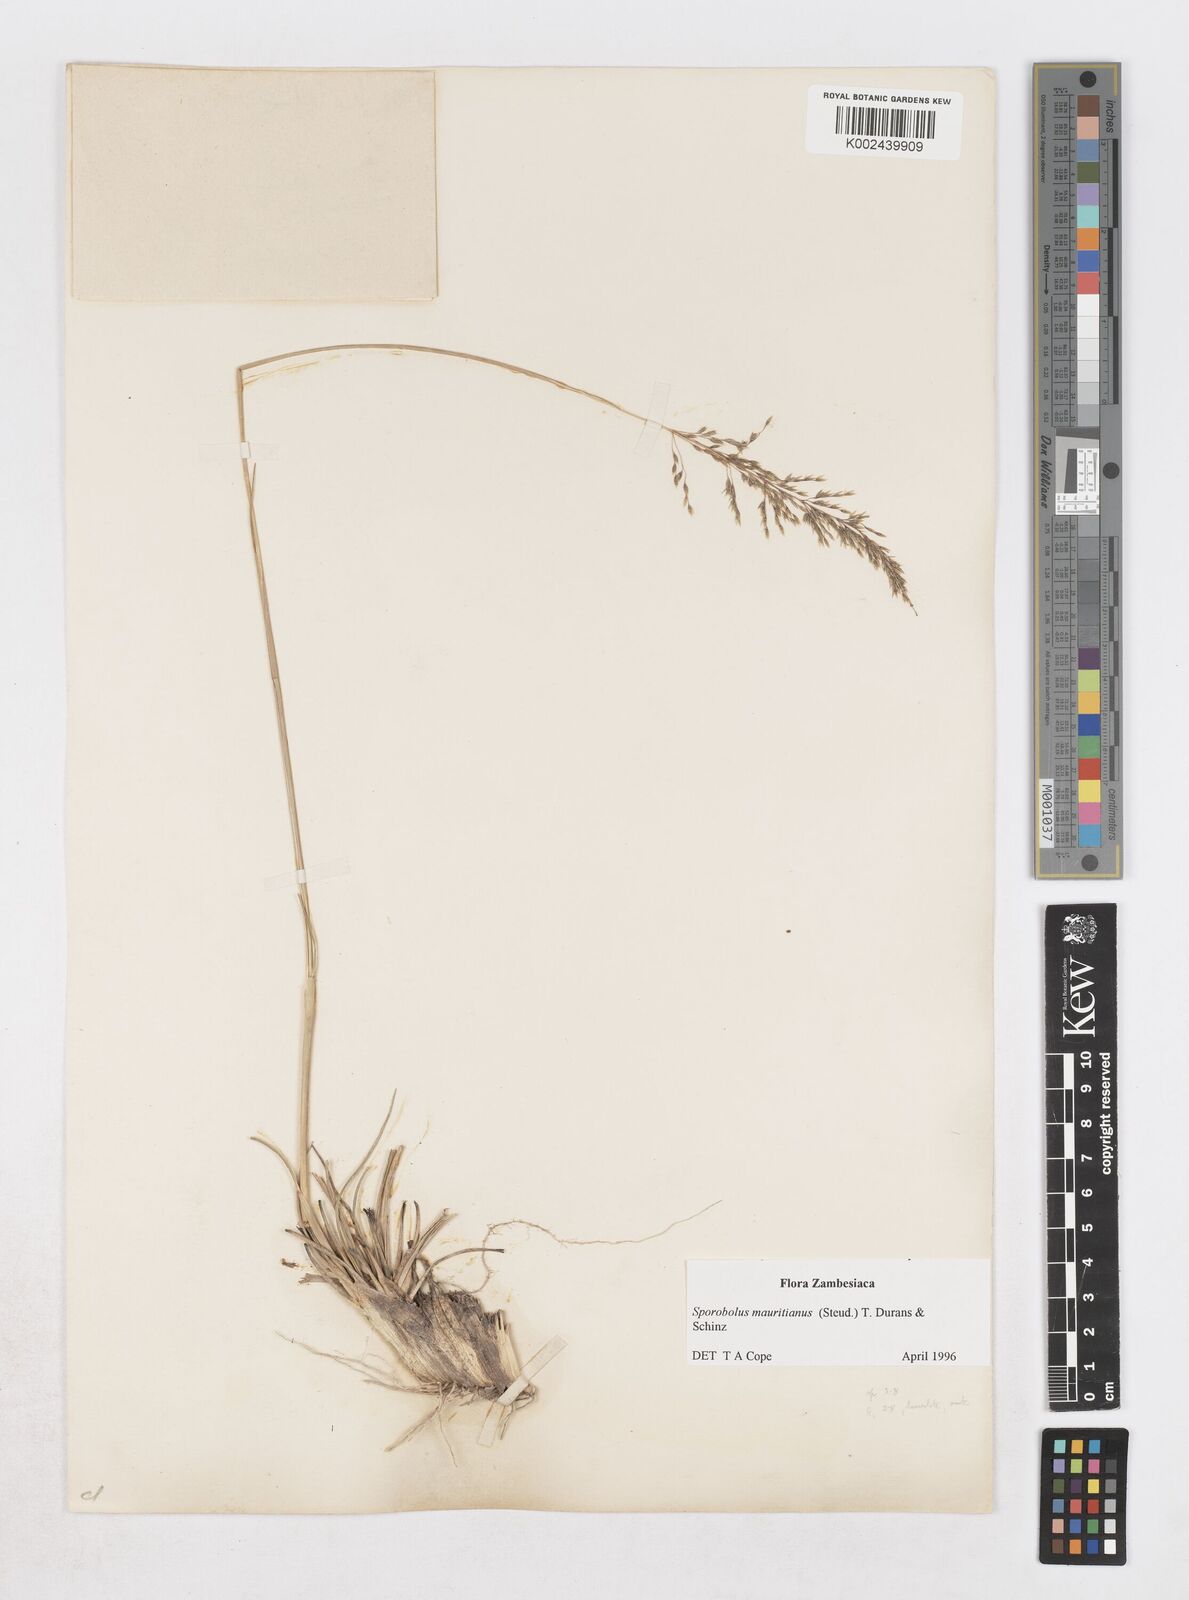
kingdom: Plantae
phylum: Tracheophyta
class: Liliopsida
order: Poales
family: Poaceae
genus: Sporobolus
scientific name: Sporobolus subulatus
